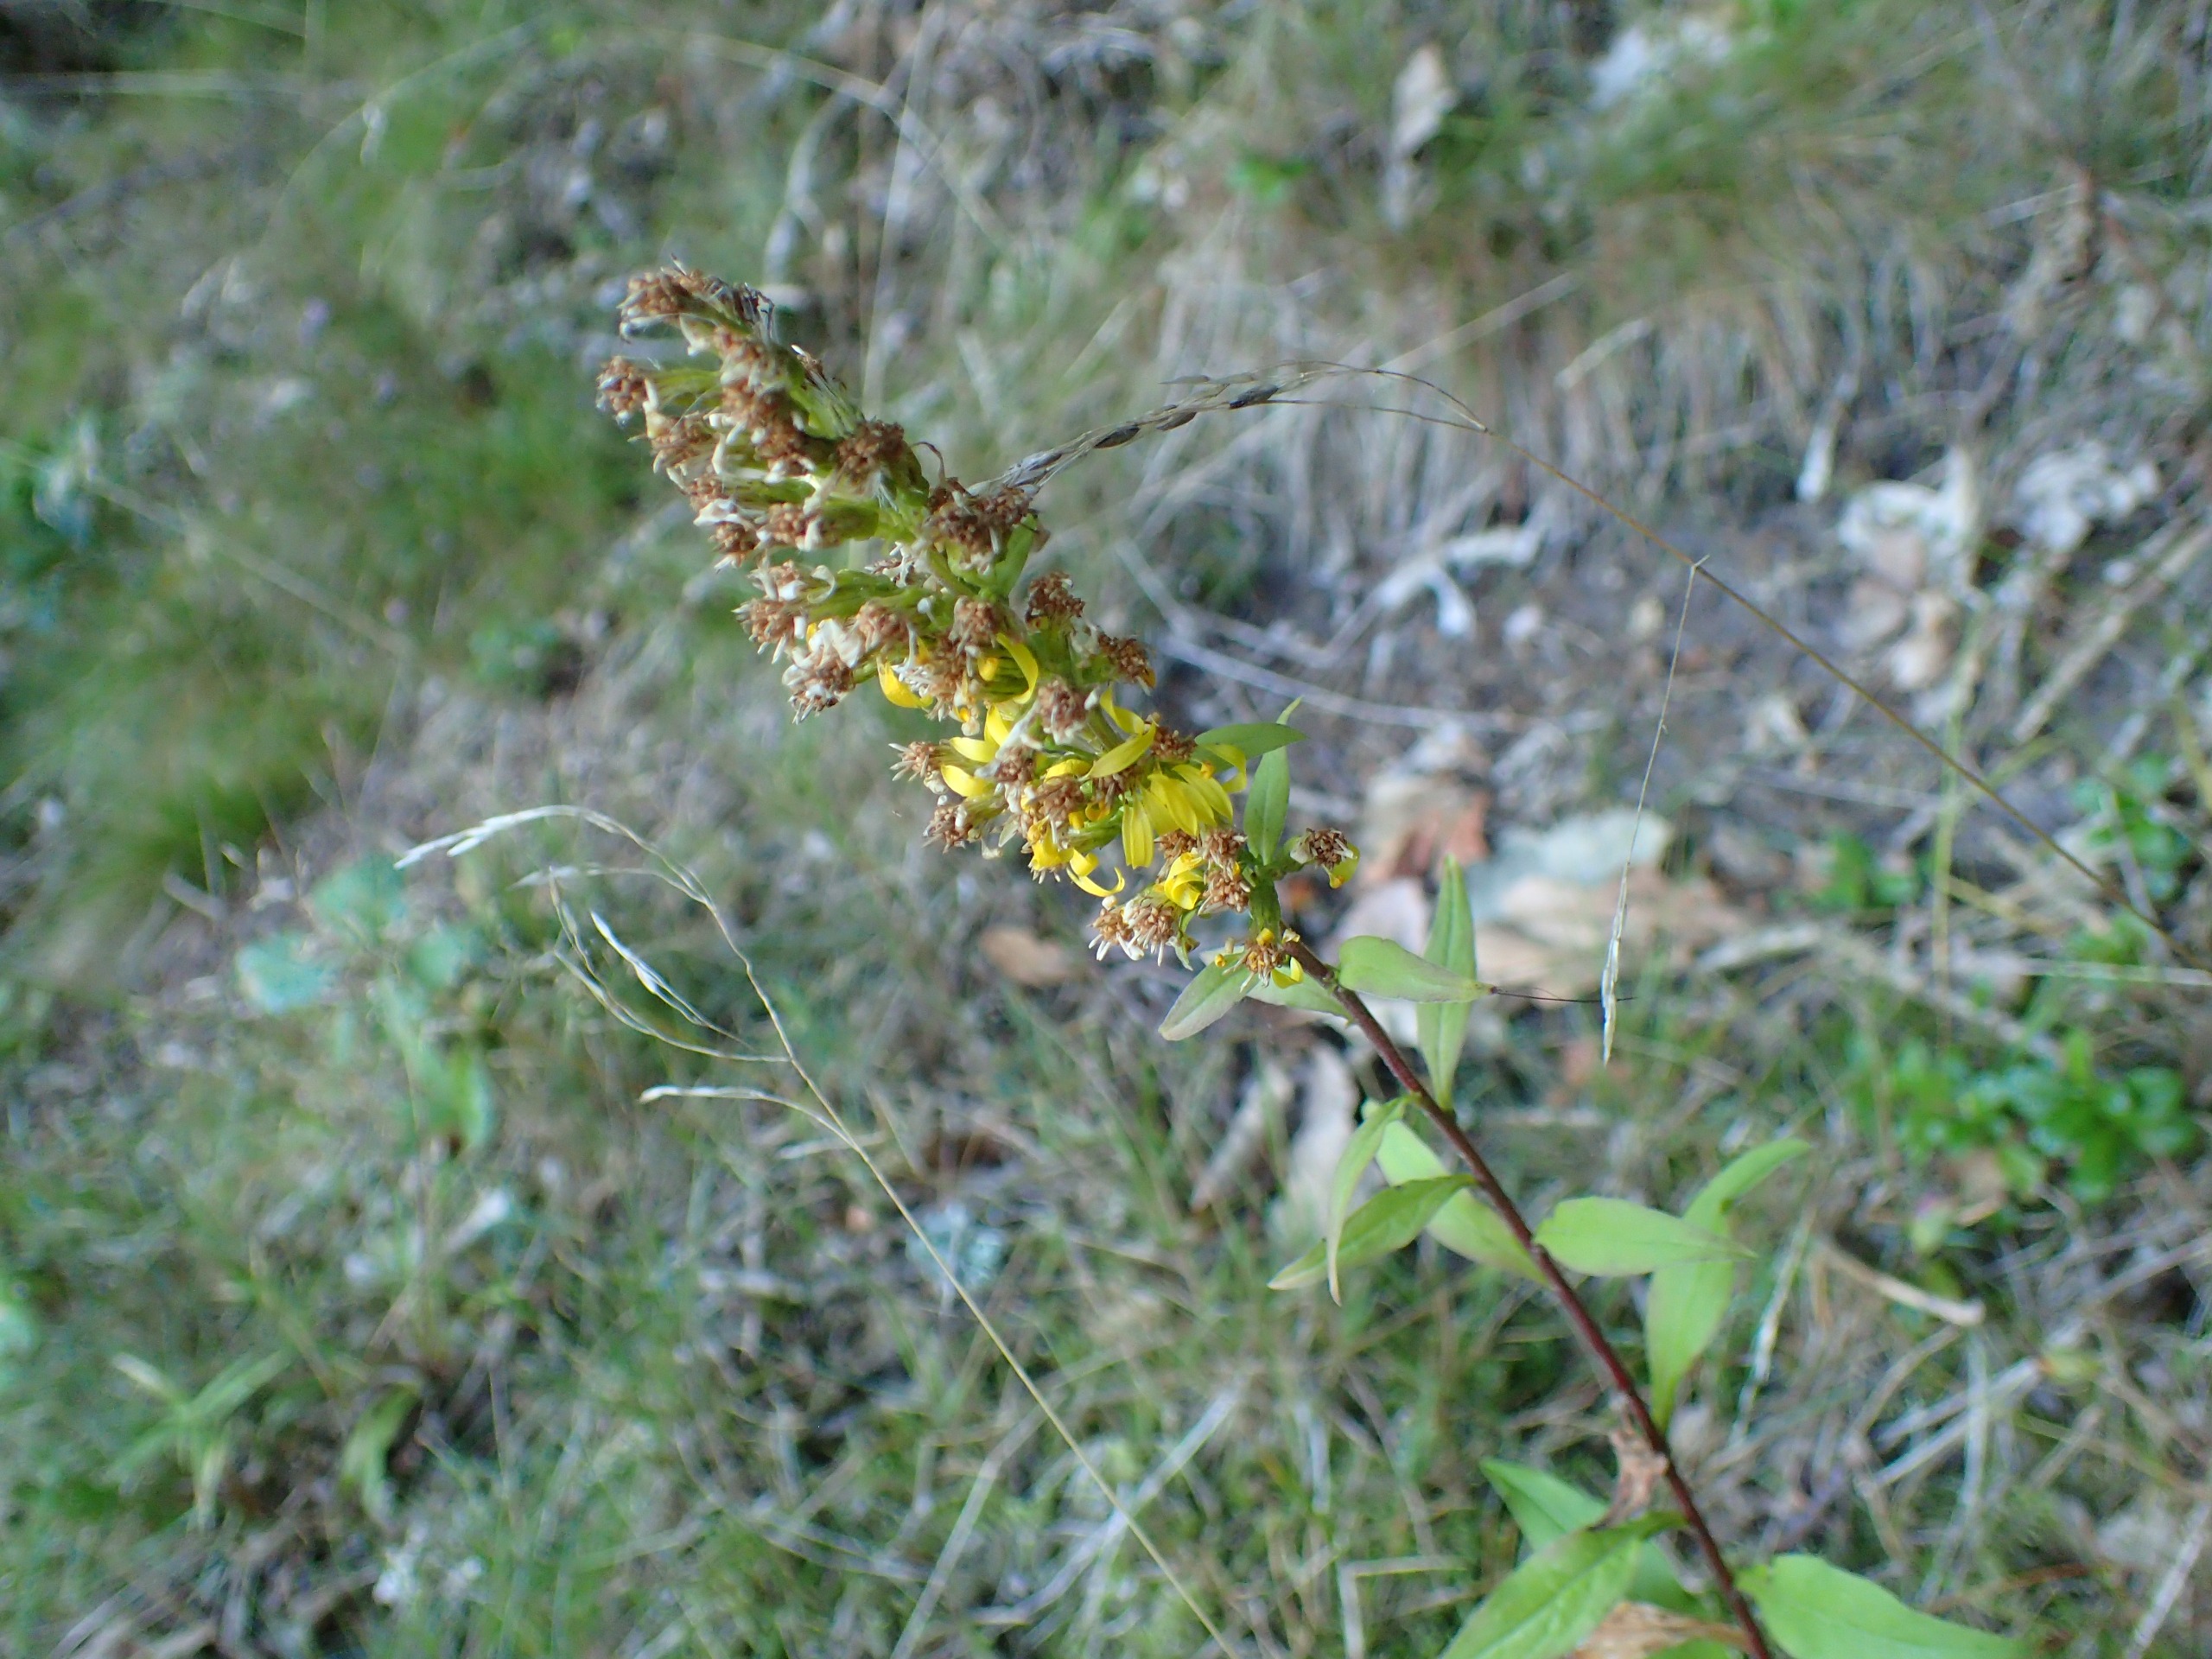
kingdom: Plantae
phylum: Tracheophyta
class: Magnoliopsida
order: Asterales
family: Asteraceae
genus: Solidago
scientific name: Solidago virgaurea
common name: Almindelig gyldenris
